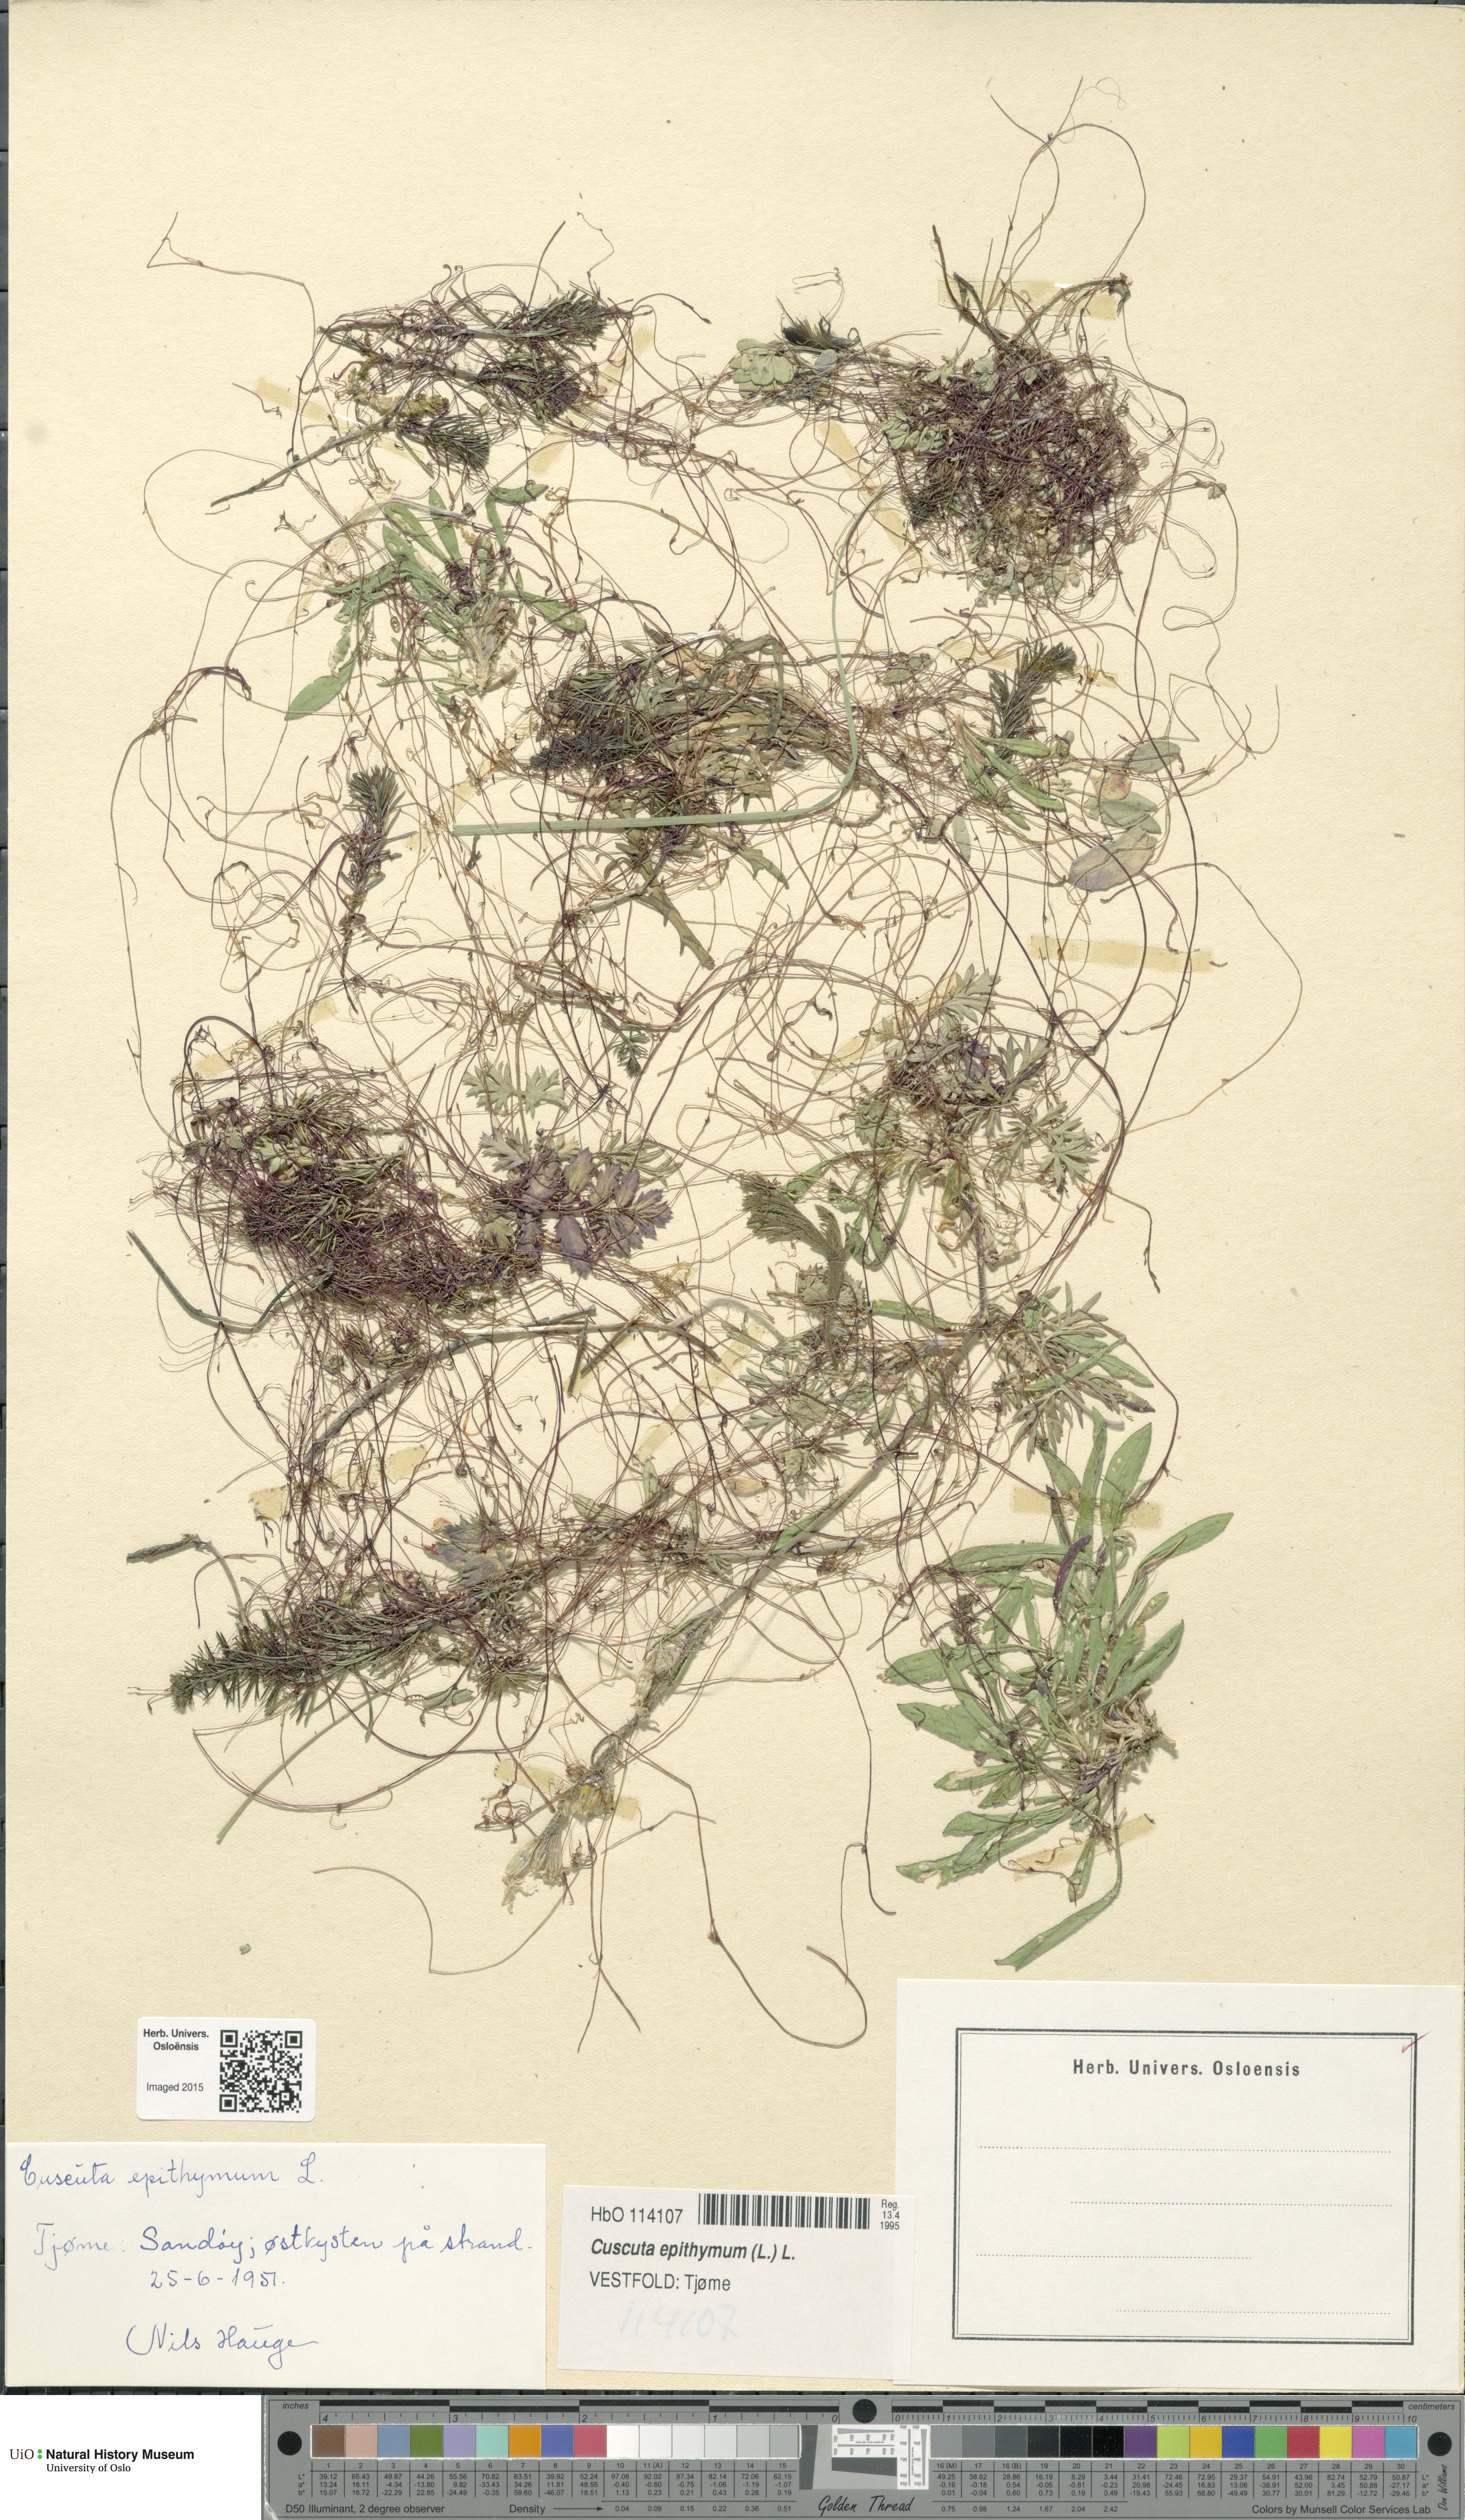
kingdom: Plantae
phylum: Tracheophyta
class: Magnoliopsida
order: Solanales
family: Convolvulaceae
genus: Cuscuta
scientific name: Cuscuta epithymum
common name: Clover dodder
